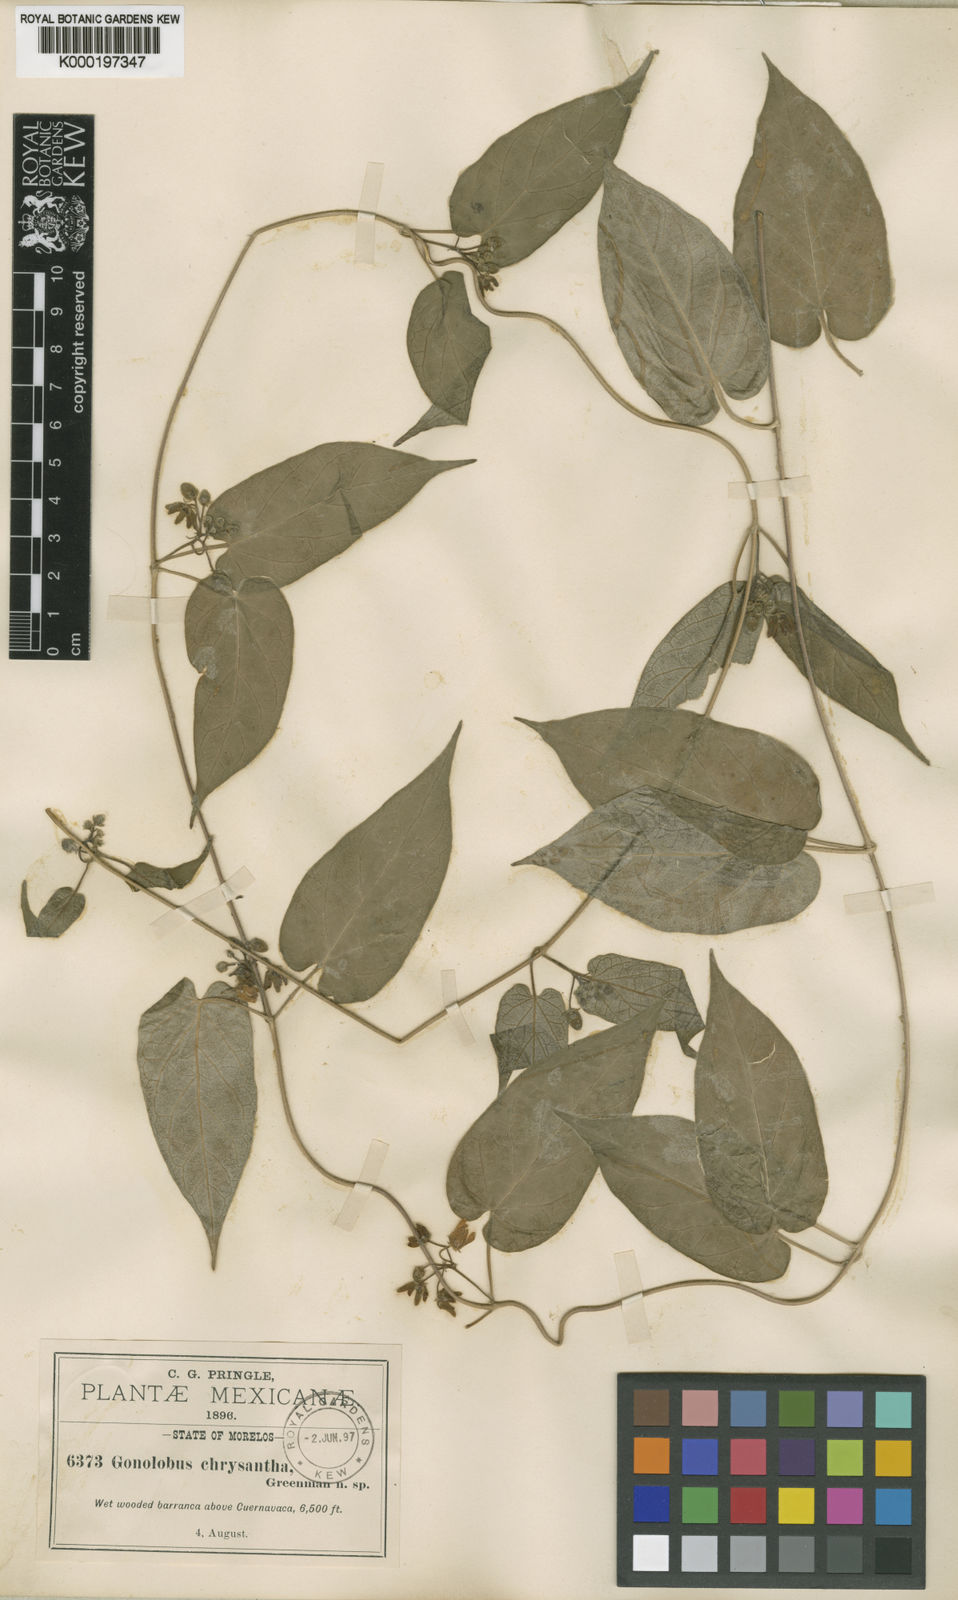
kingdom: Plantae
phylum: Tracheophyta
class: Magnoliopsida
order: Gentianales
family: Apocynaceae
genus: Matelea
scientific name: Matelea chrysantha
